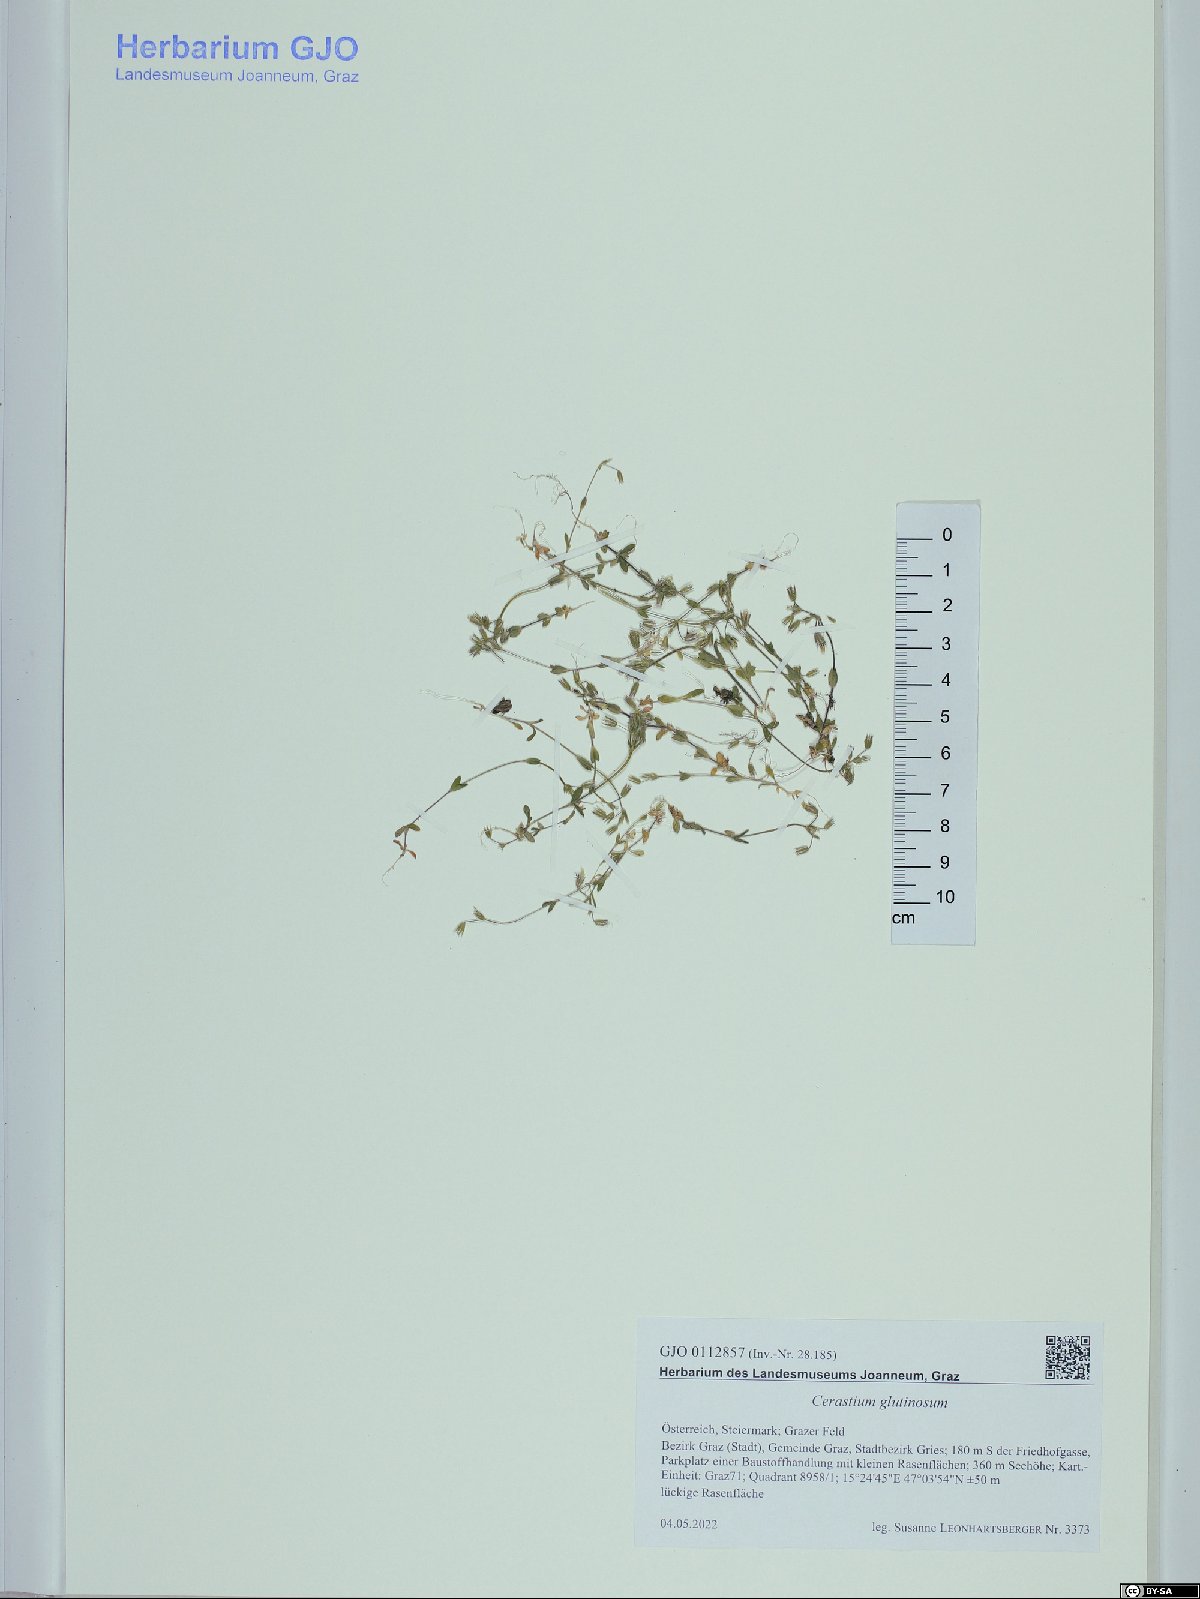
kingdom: Plantae
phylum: Tracheophyta
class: Magnoliopsida
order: Caryophyllales
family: Caryophyllaceae
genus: Cerastium
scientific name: Cerastium glutinosum
